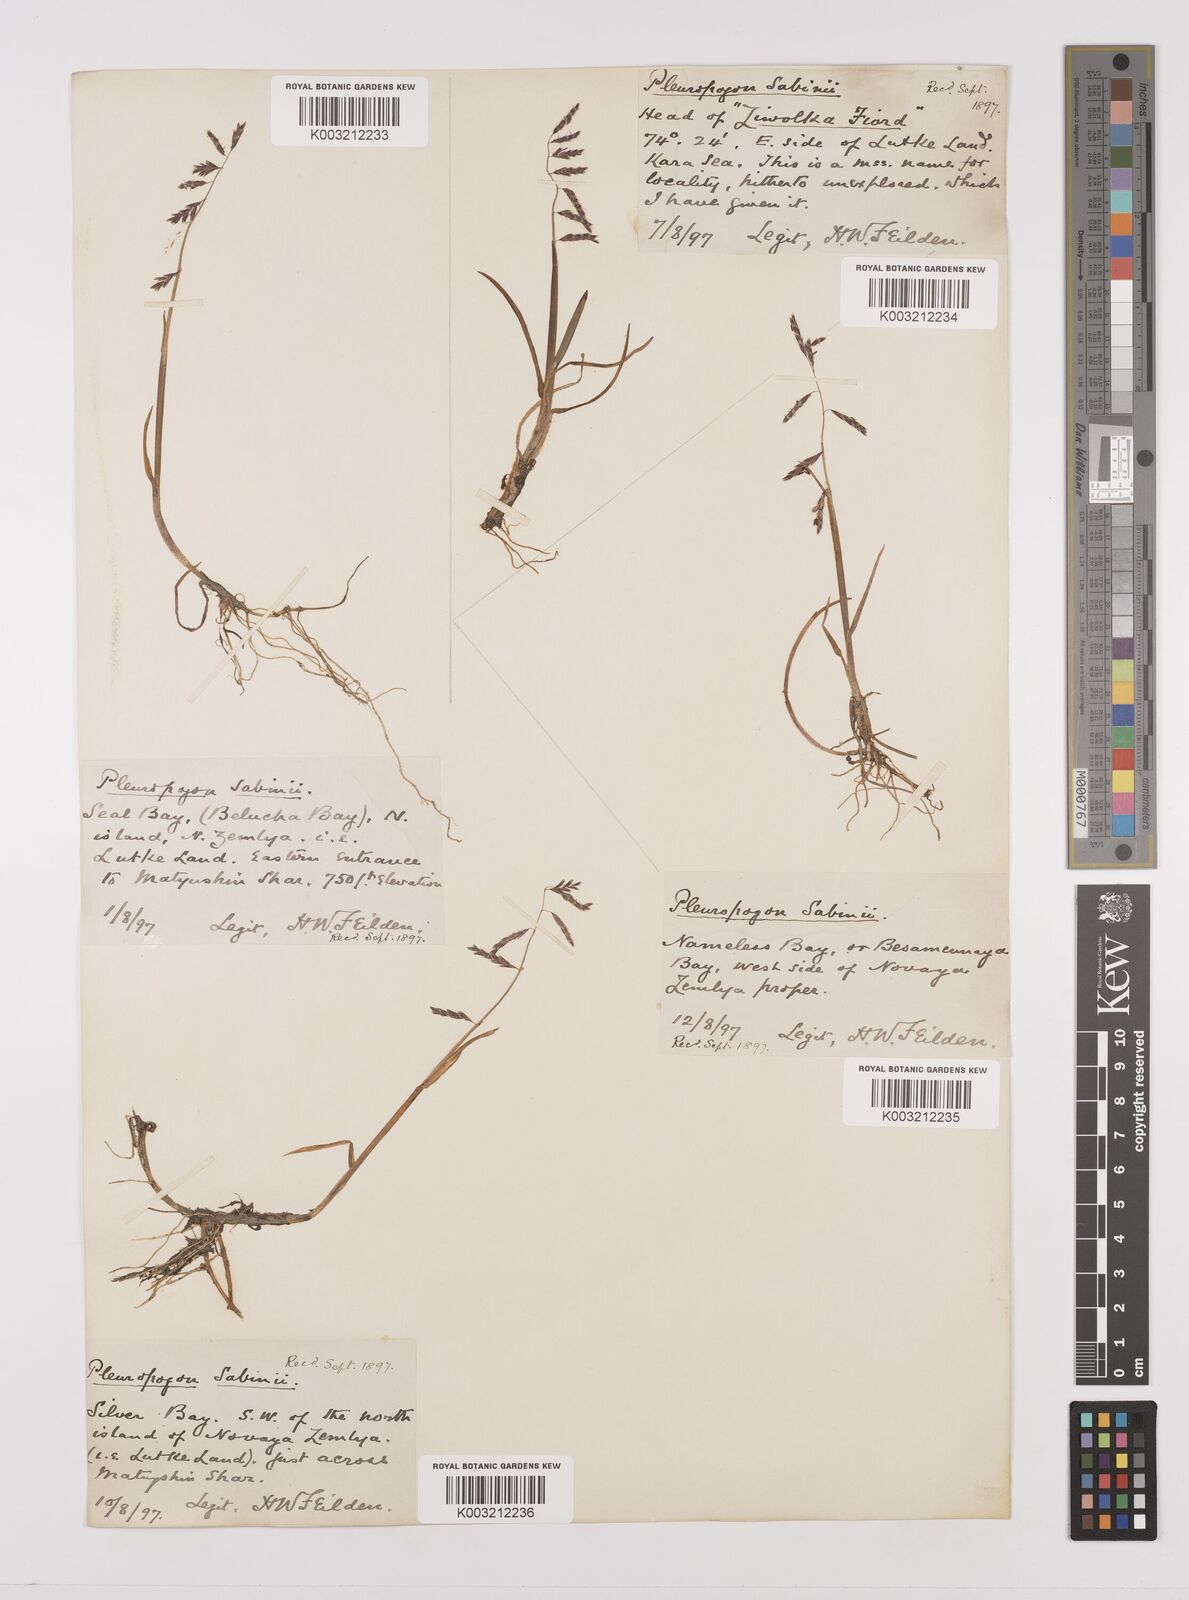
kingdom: Plantae
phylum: Tracheophyta
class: Liliopsida
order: Poales
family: Poaceae
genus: Pleuropogon
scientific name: Pleuropogon sabinei
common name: Sabine's false semaphoregrass
